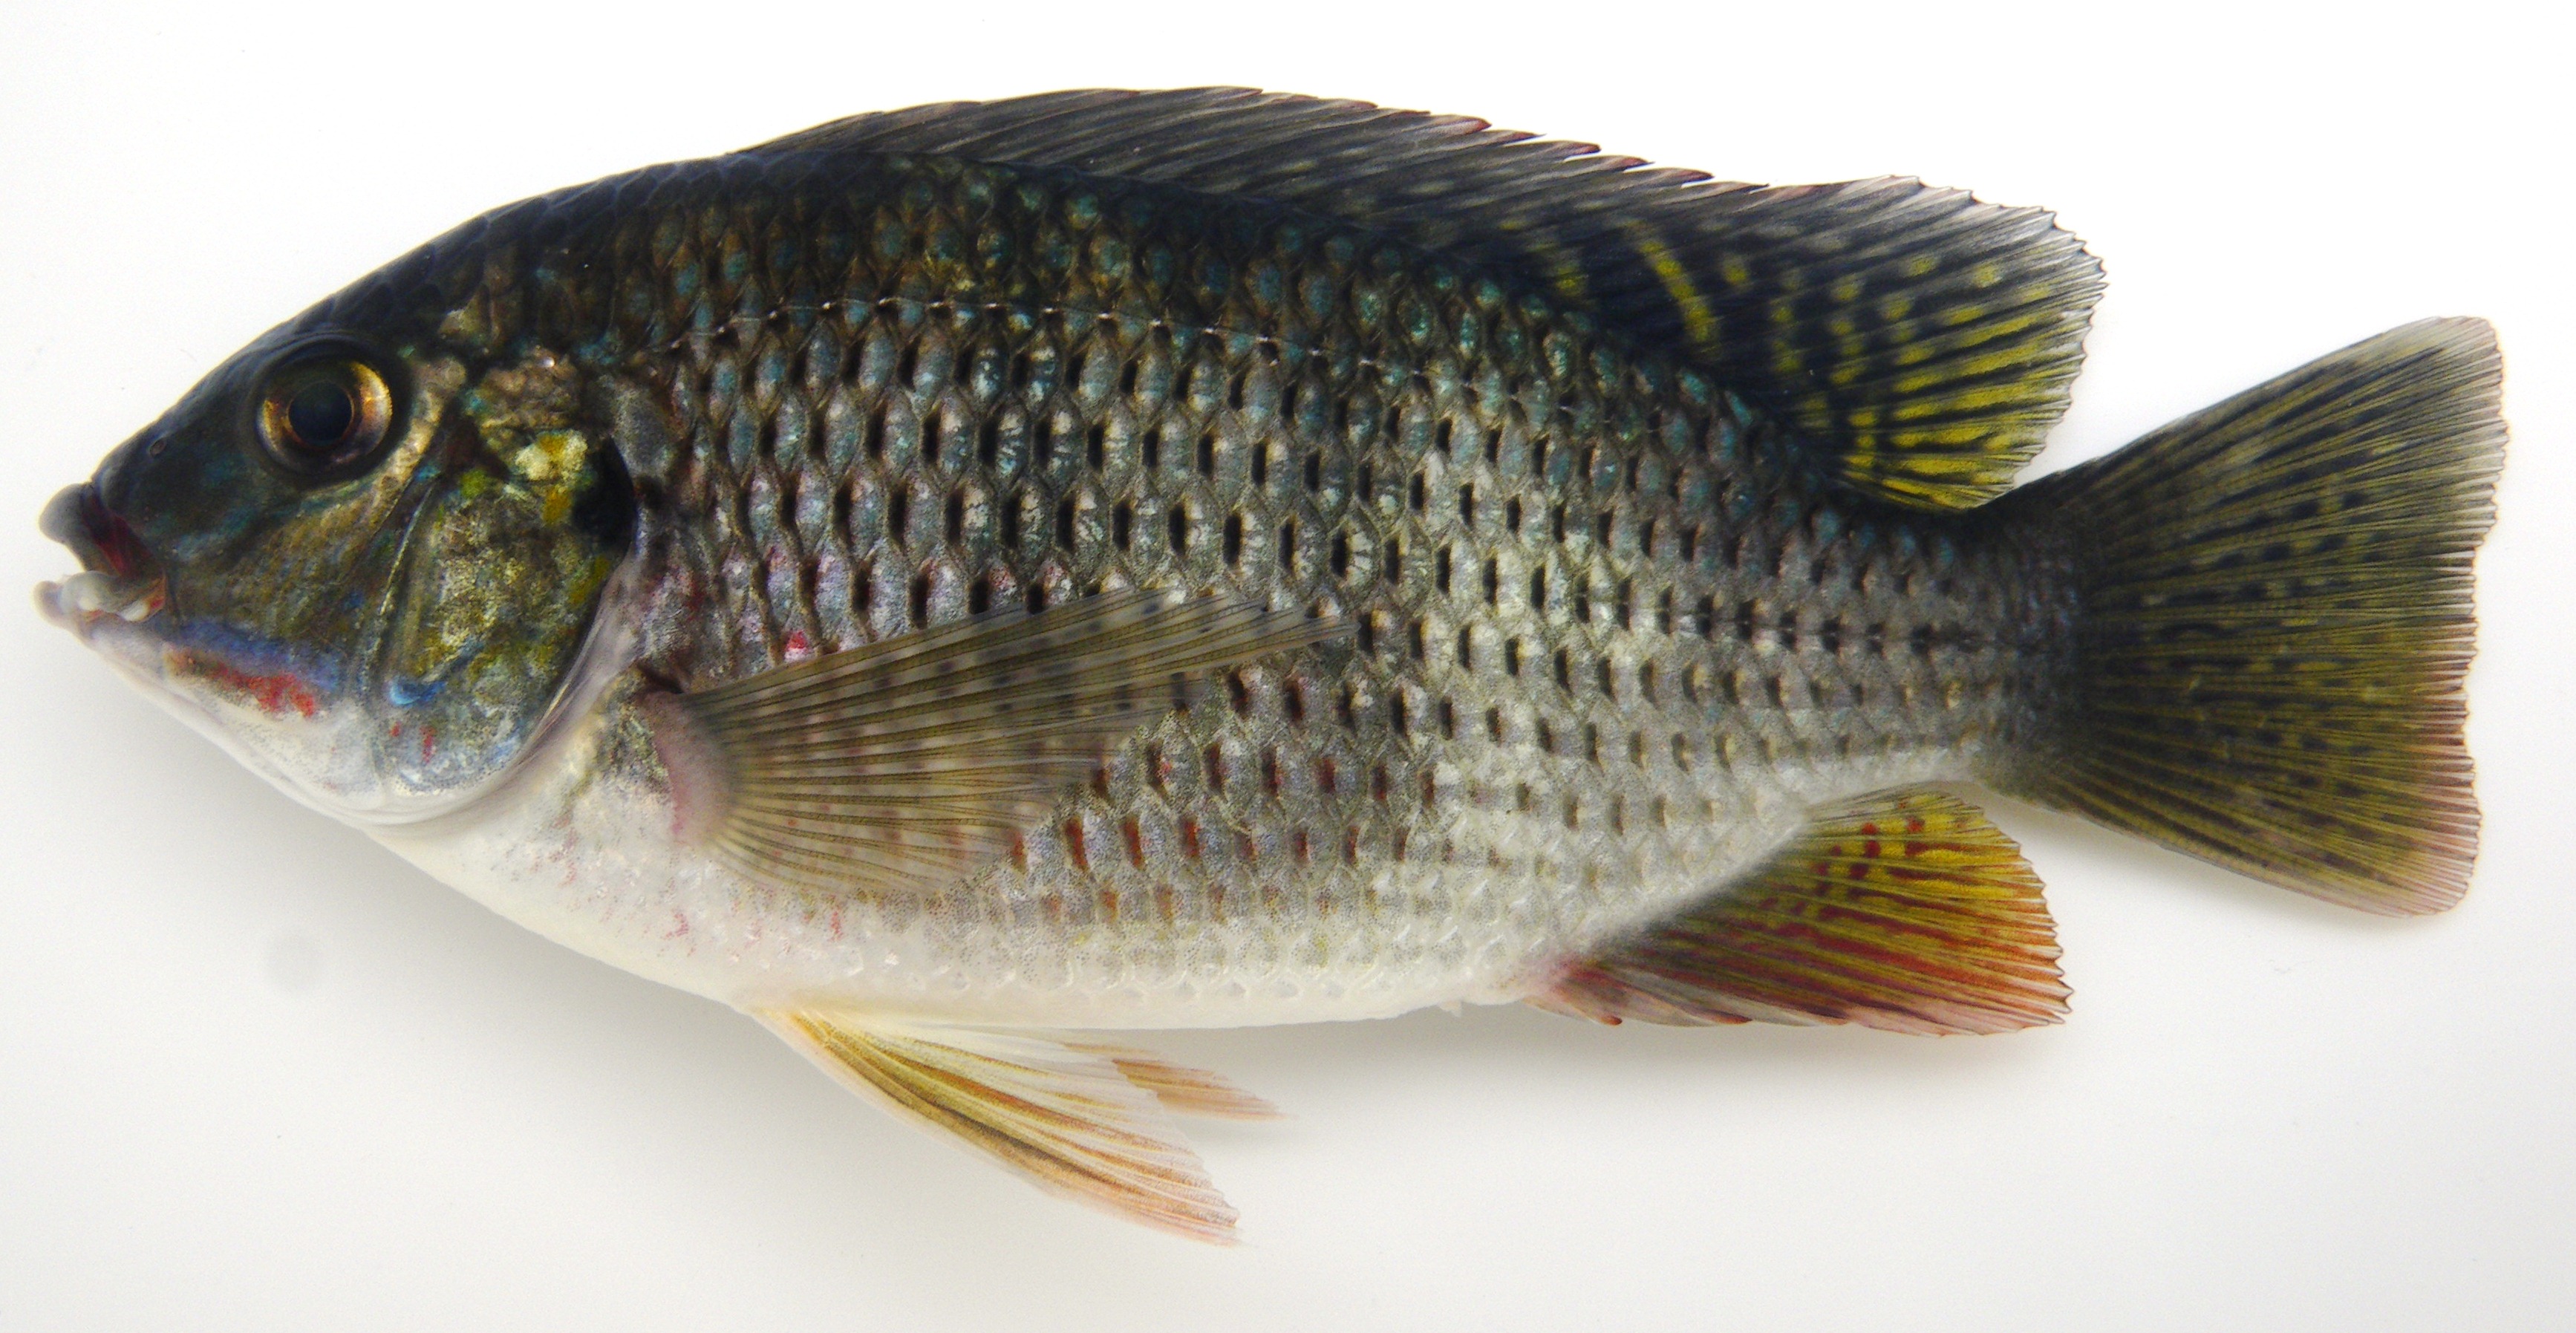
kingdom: Animalia
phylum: Chordata
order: Perciformes
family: Cichlidae
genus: Coptodon
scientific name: Coptodon rendalli
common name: Redbreast tilapia
